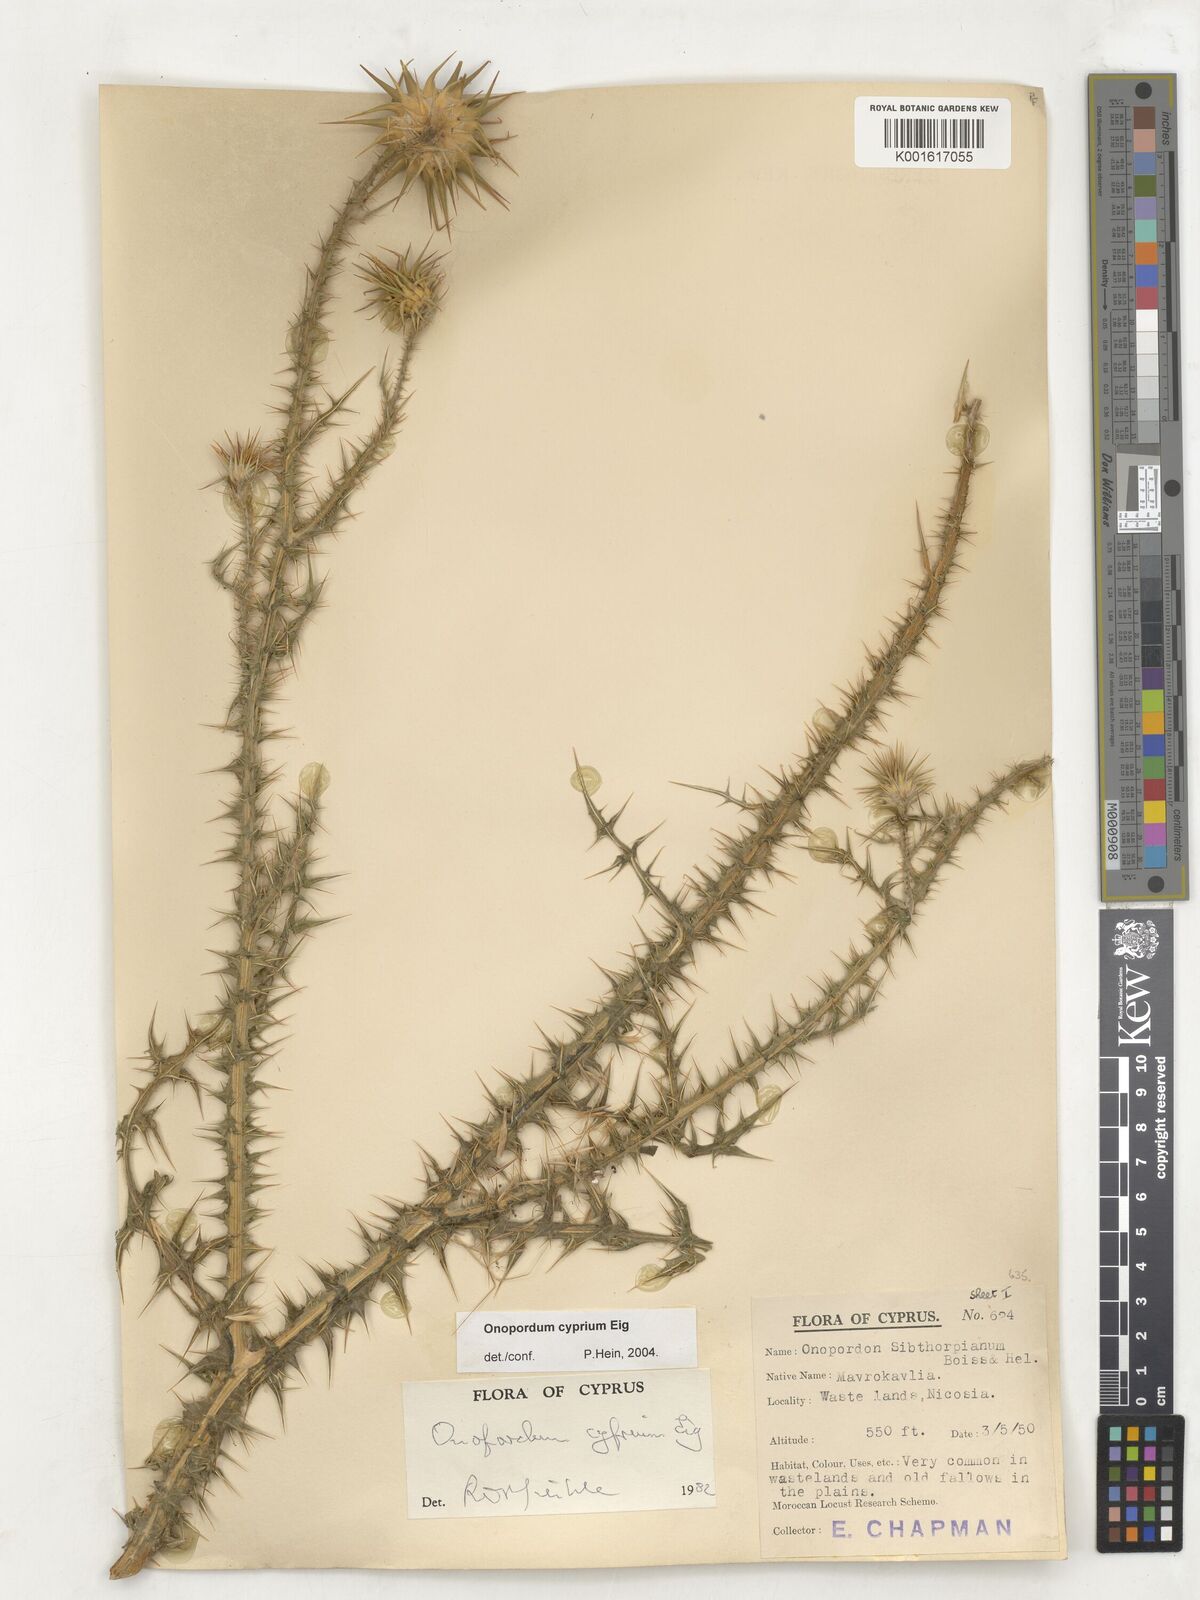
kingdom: Plantae
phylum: Tracheophyta
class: Magnoliopsida
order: Asterales
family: Asteraceae
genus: Onopordum
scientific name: Onopordum cyprium
